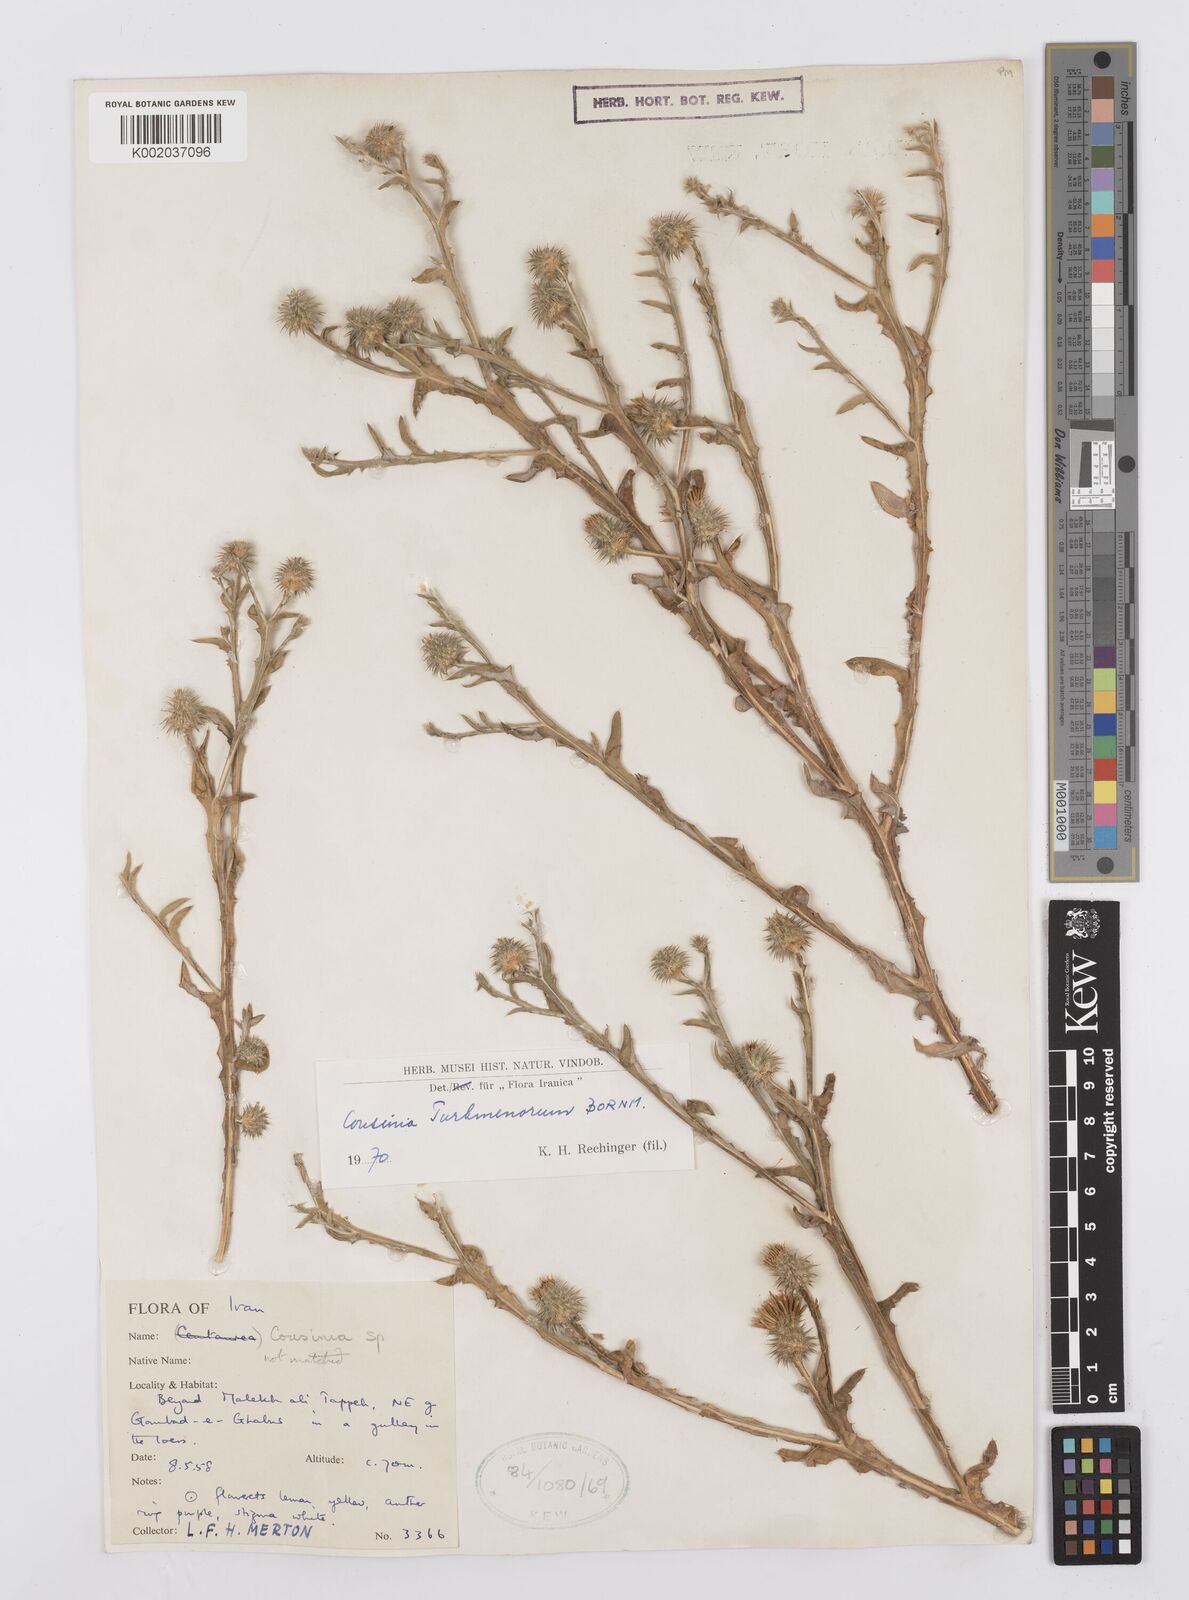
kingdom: Plantae
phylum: Tracheophyta
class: Magnoliopsida
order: Asterales
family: Asteraceae
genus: Cousinia
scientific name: Cousinia turkmenorum
